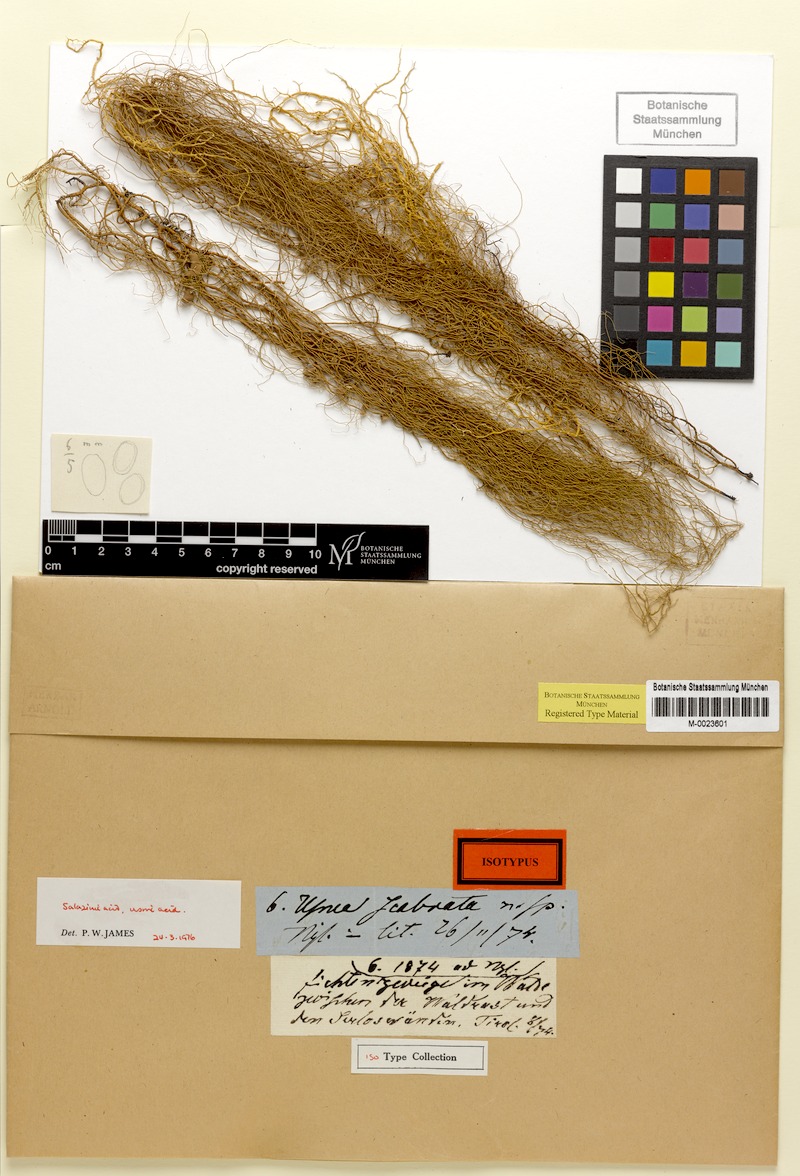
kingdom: Fungi
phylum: Ascomycota
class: Lecanoromycetes
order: Lecanorales
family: Parmeliaceae
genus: Usnea
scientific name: Usnea scabrata
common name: Straw beard lichen
